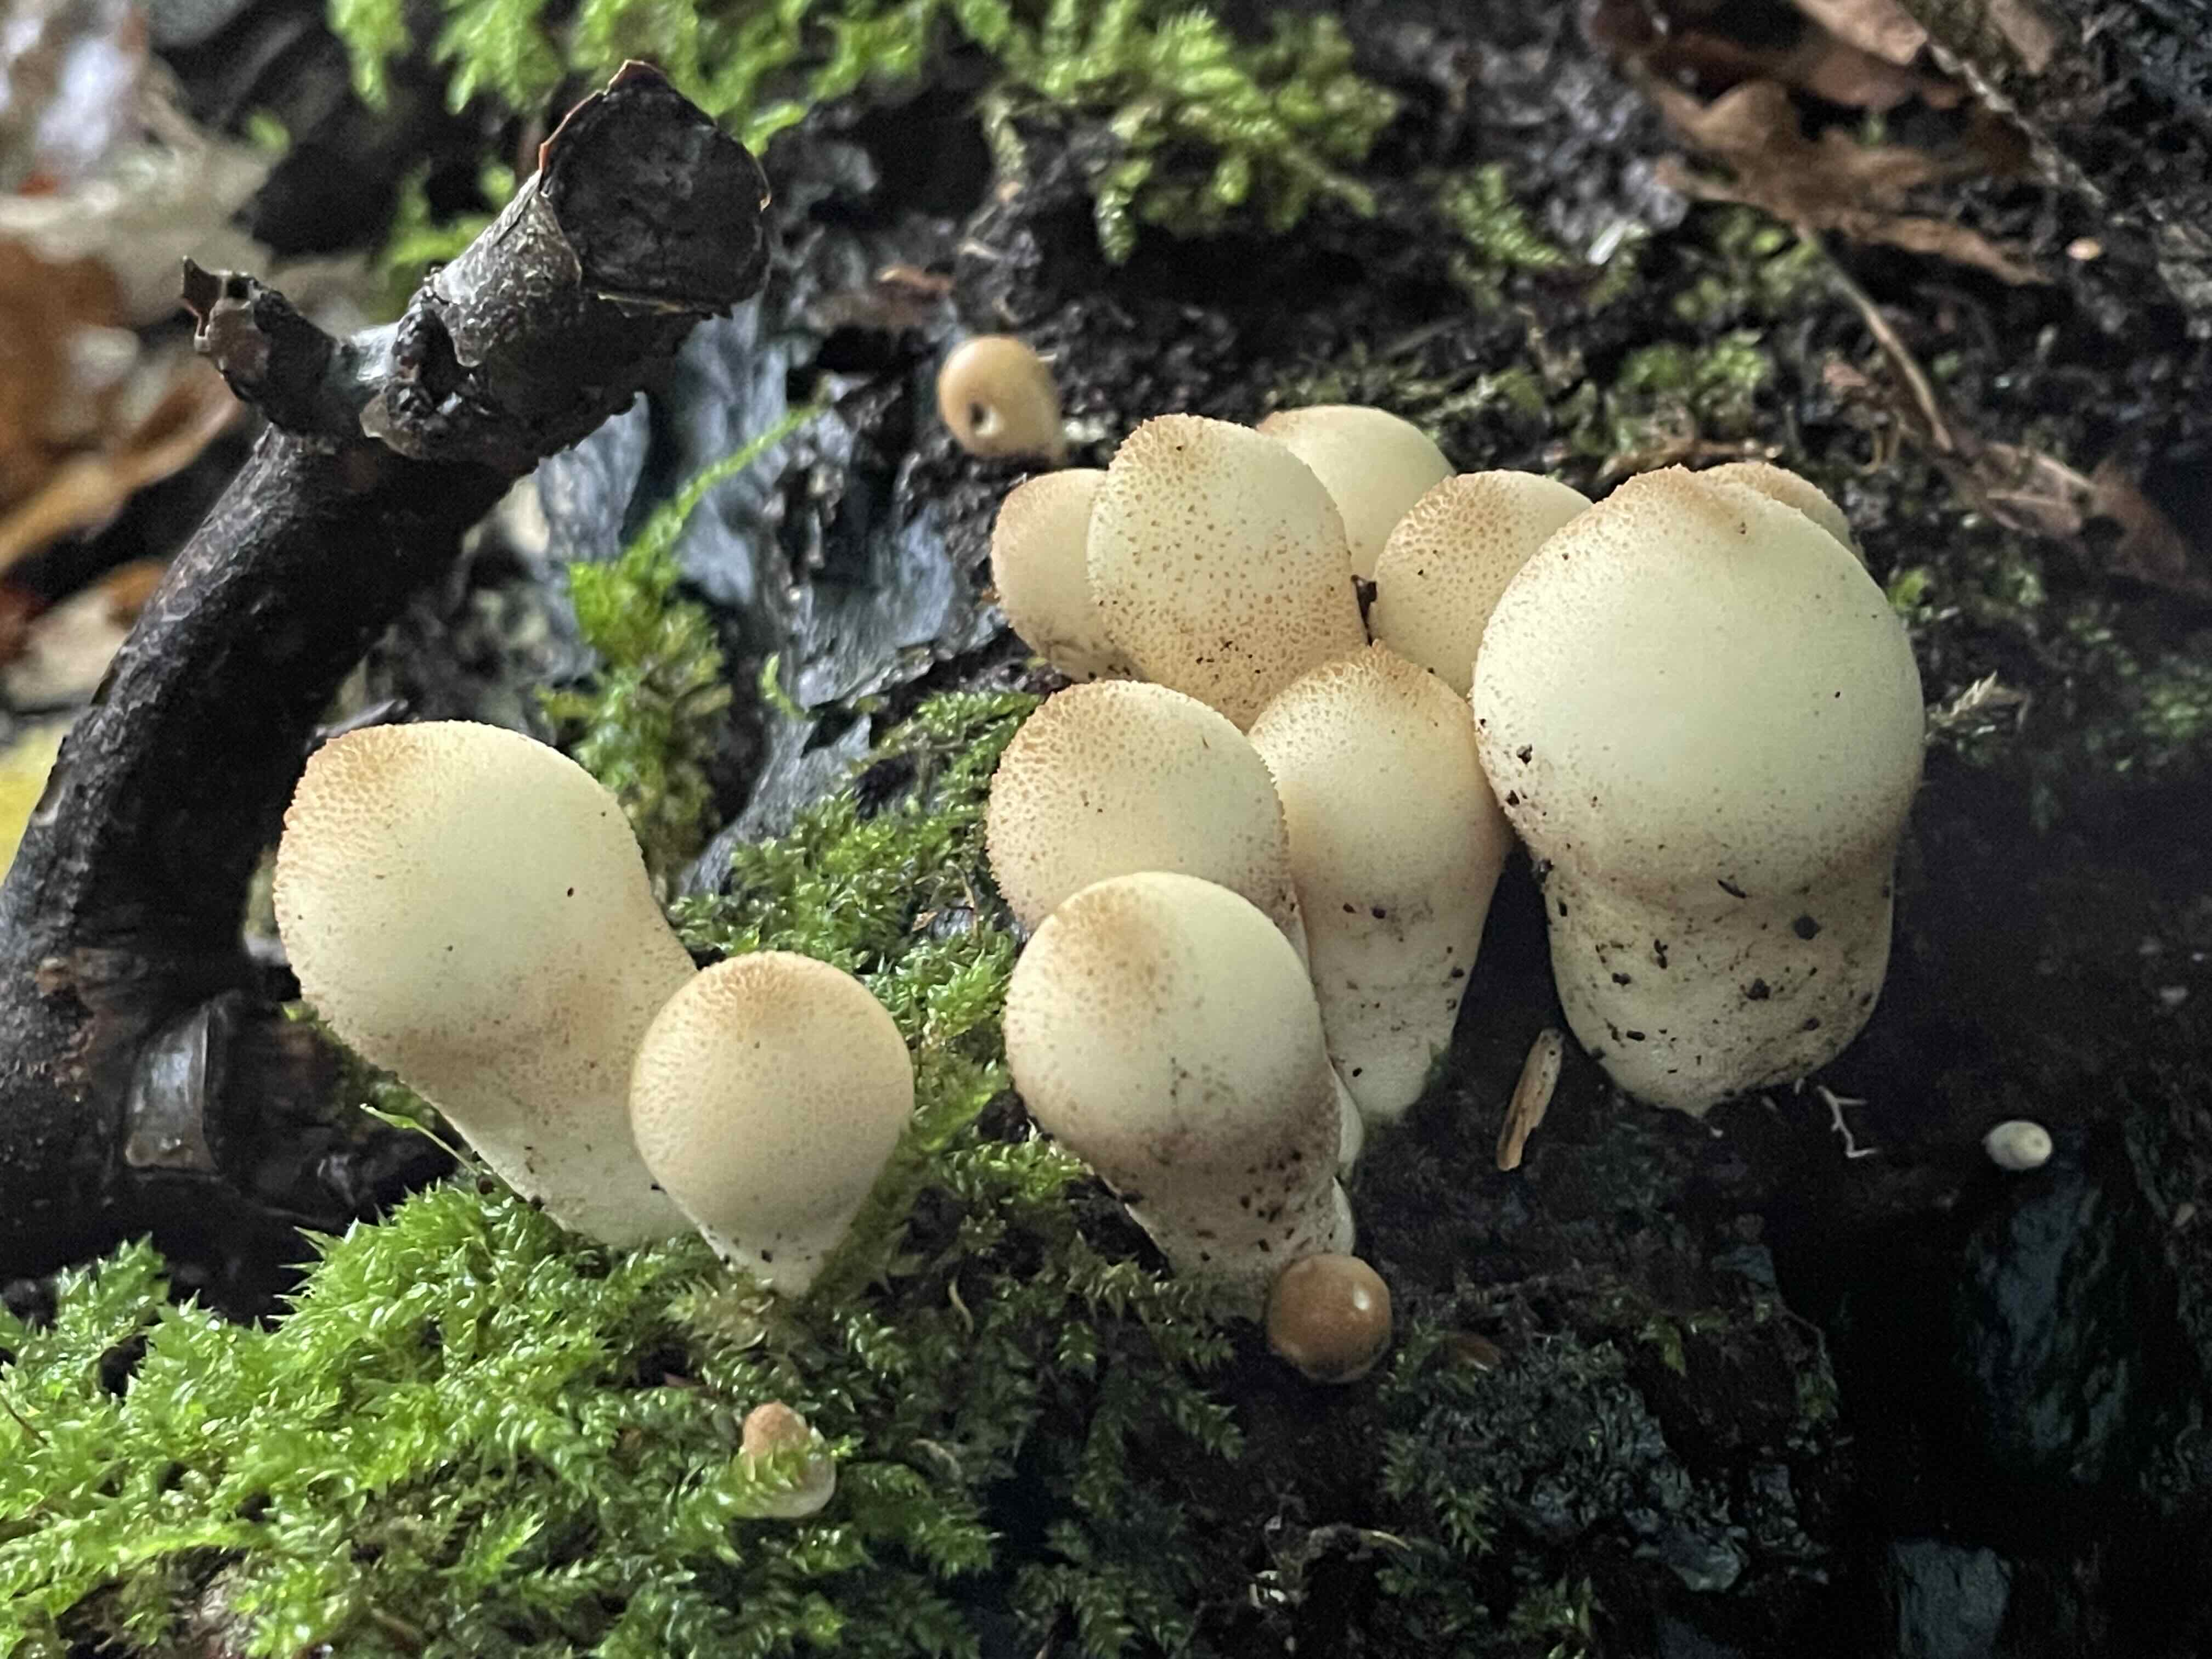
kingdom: Fungi
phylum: Basidiomycota
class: Agaricomycetes
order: Agaricales
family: Lycoperdaceae
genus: Apioperdon
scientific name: Apioperdon pyriforme
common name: pære-støvbold
